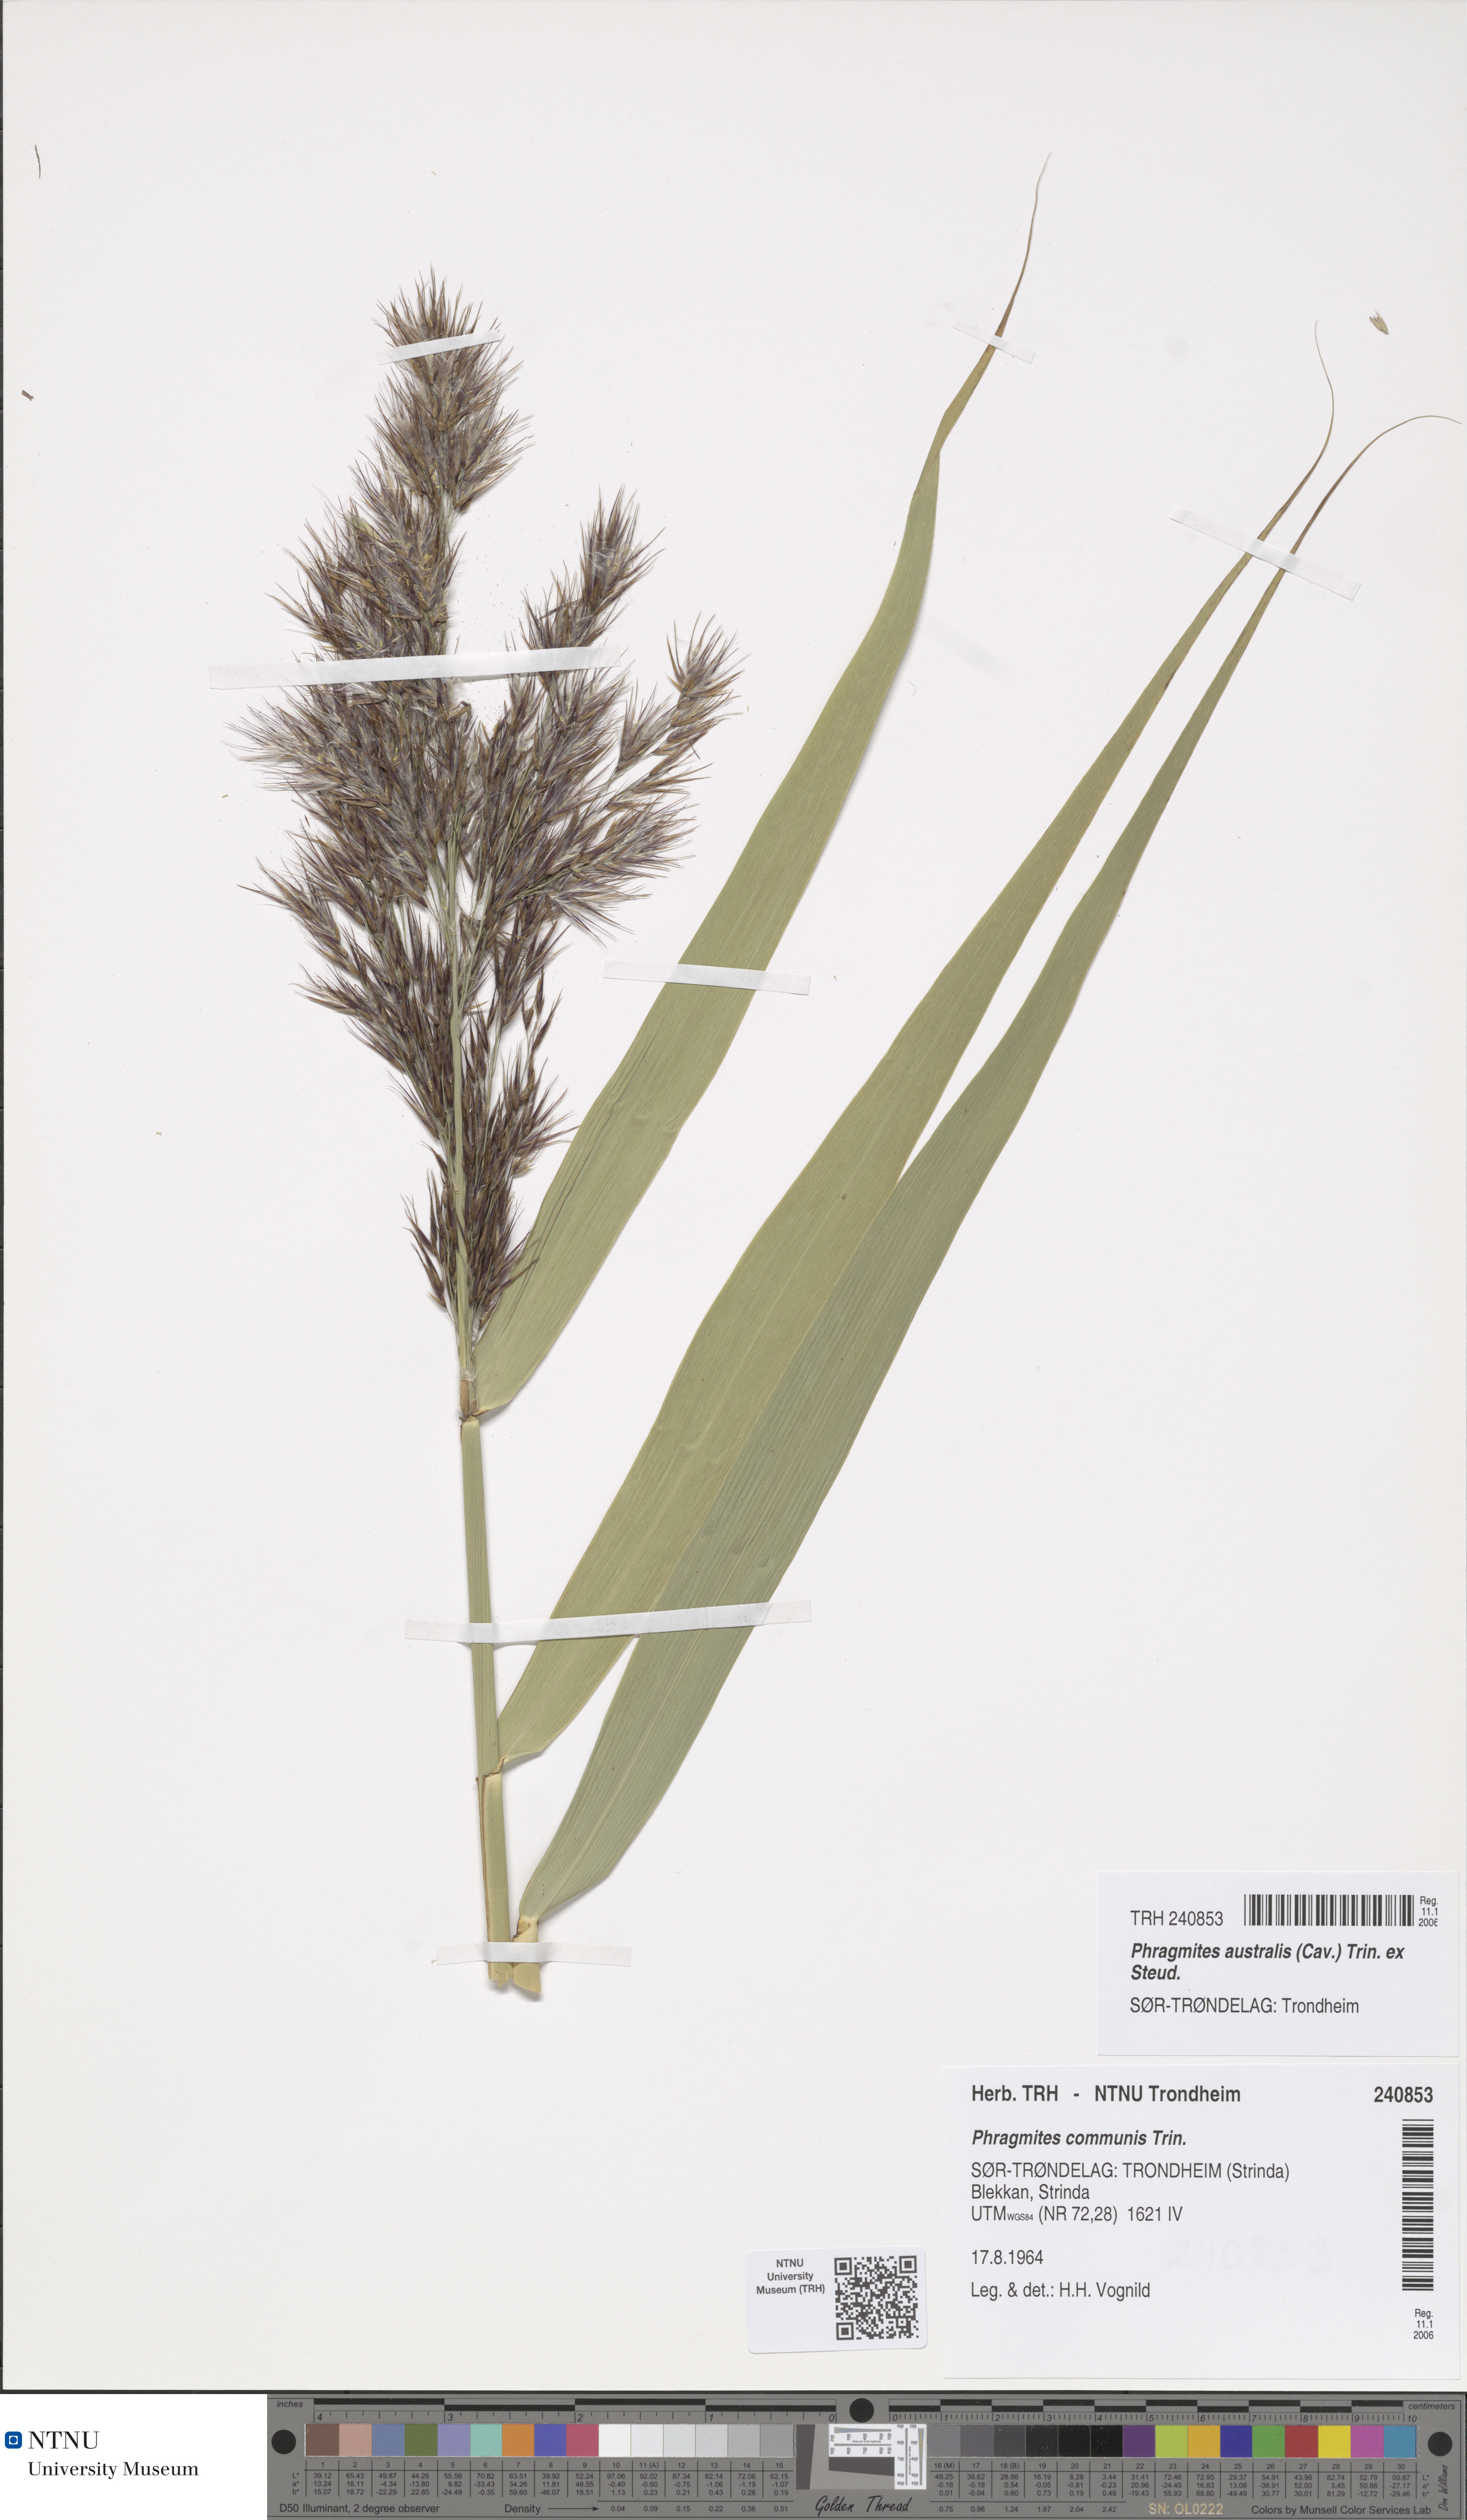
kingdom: Plantae
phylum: Tracheophyta
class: Liliopsida
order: Poales
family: Poaceae
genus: Phragmites
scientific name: Phragmites australis
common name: Common reed
